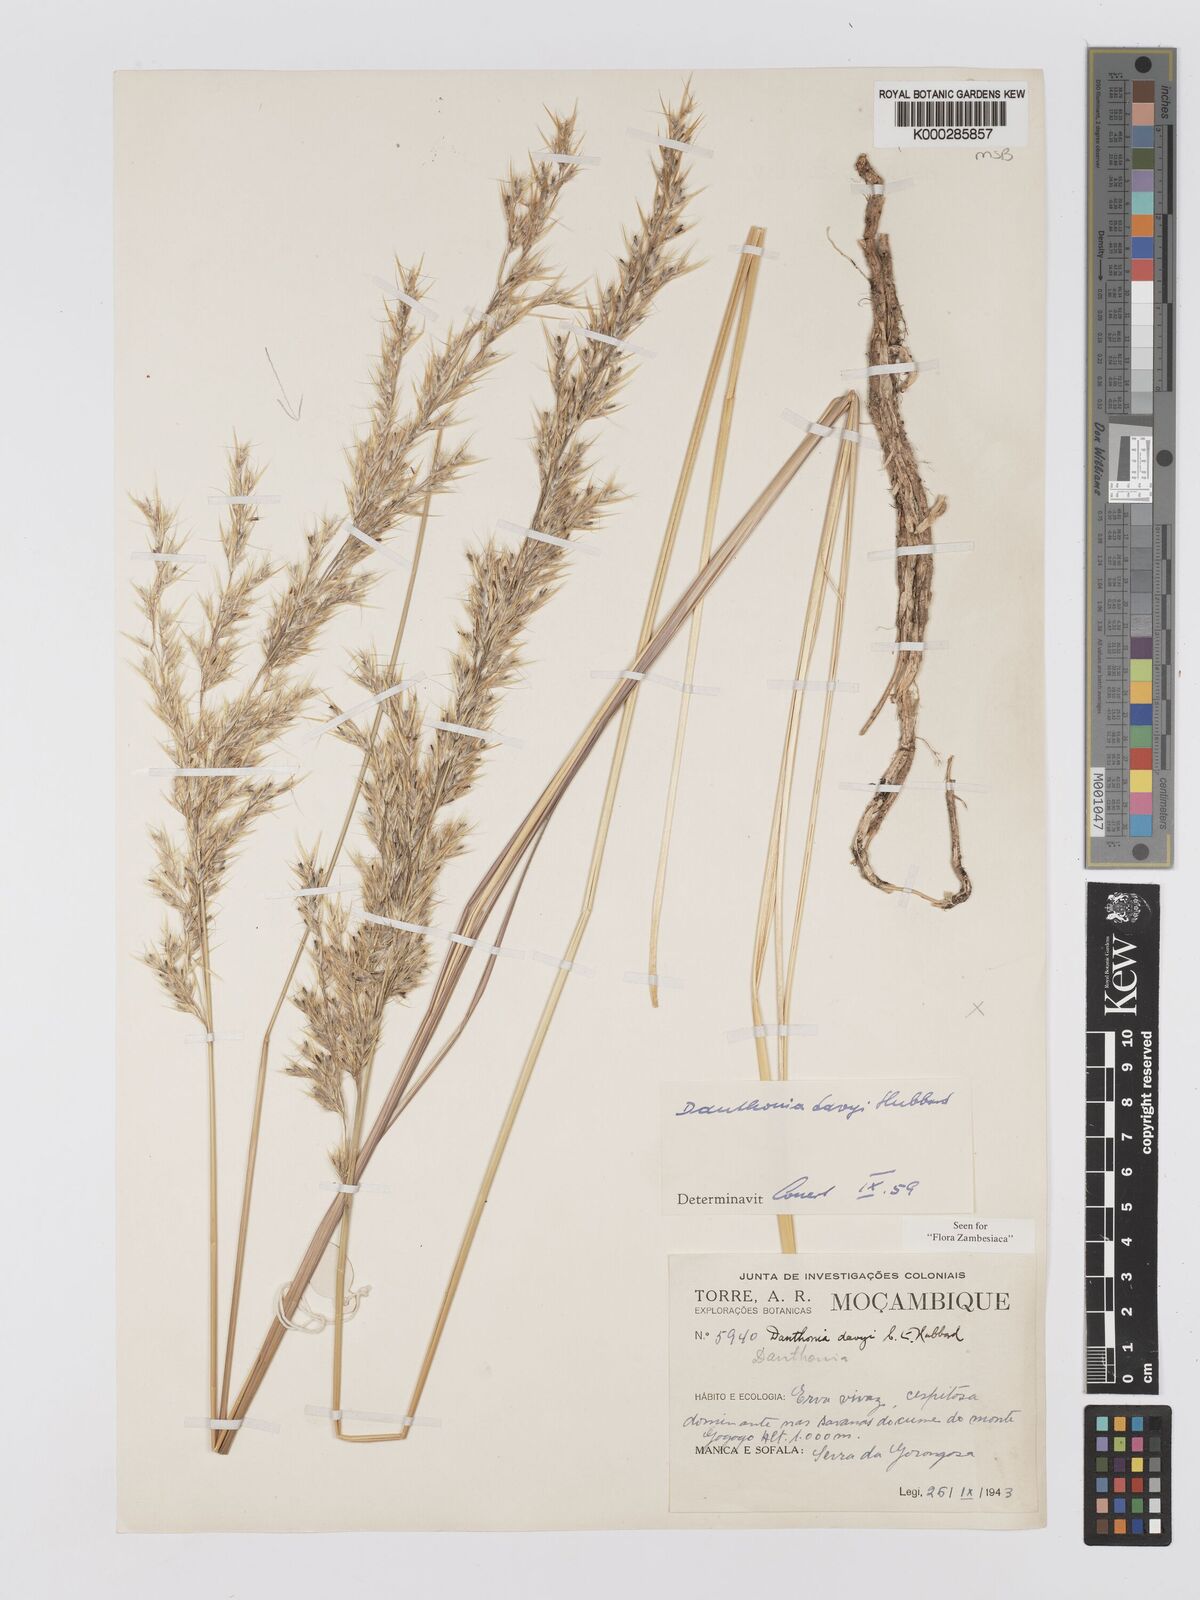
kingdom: Plantae
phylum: Tracheophyta
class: Liliopsida
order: Poales
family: Poaceae
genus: Merxmuellera
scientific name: Merxmuellera davyi
